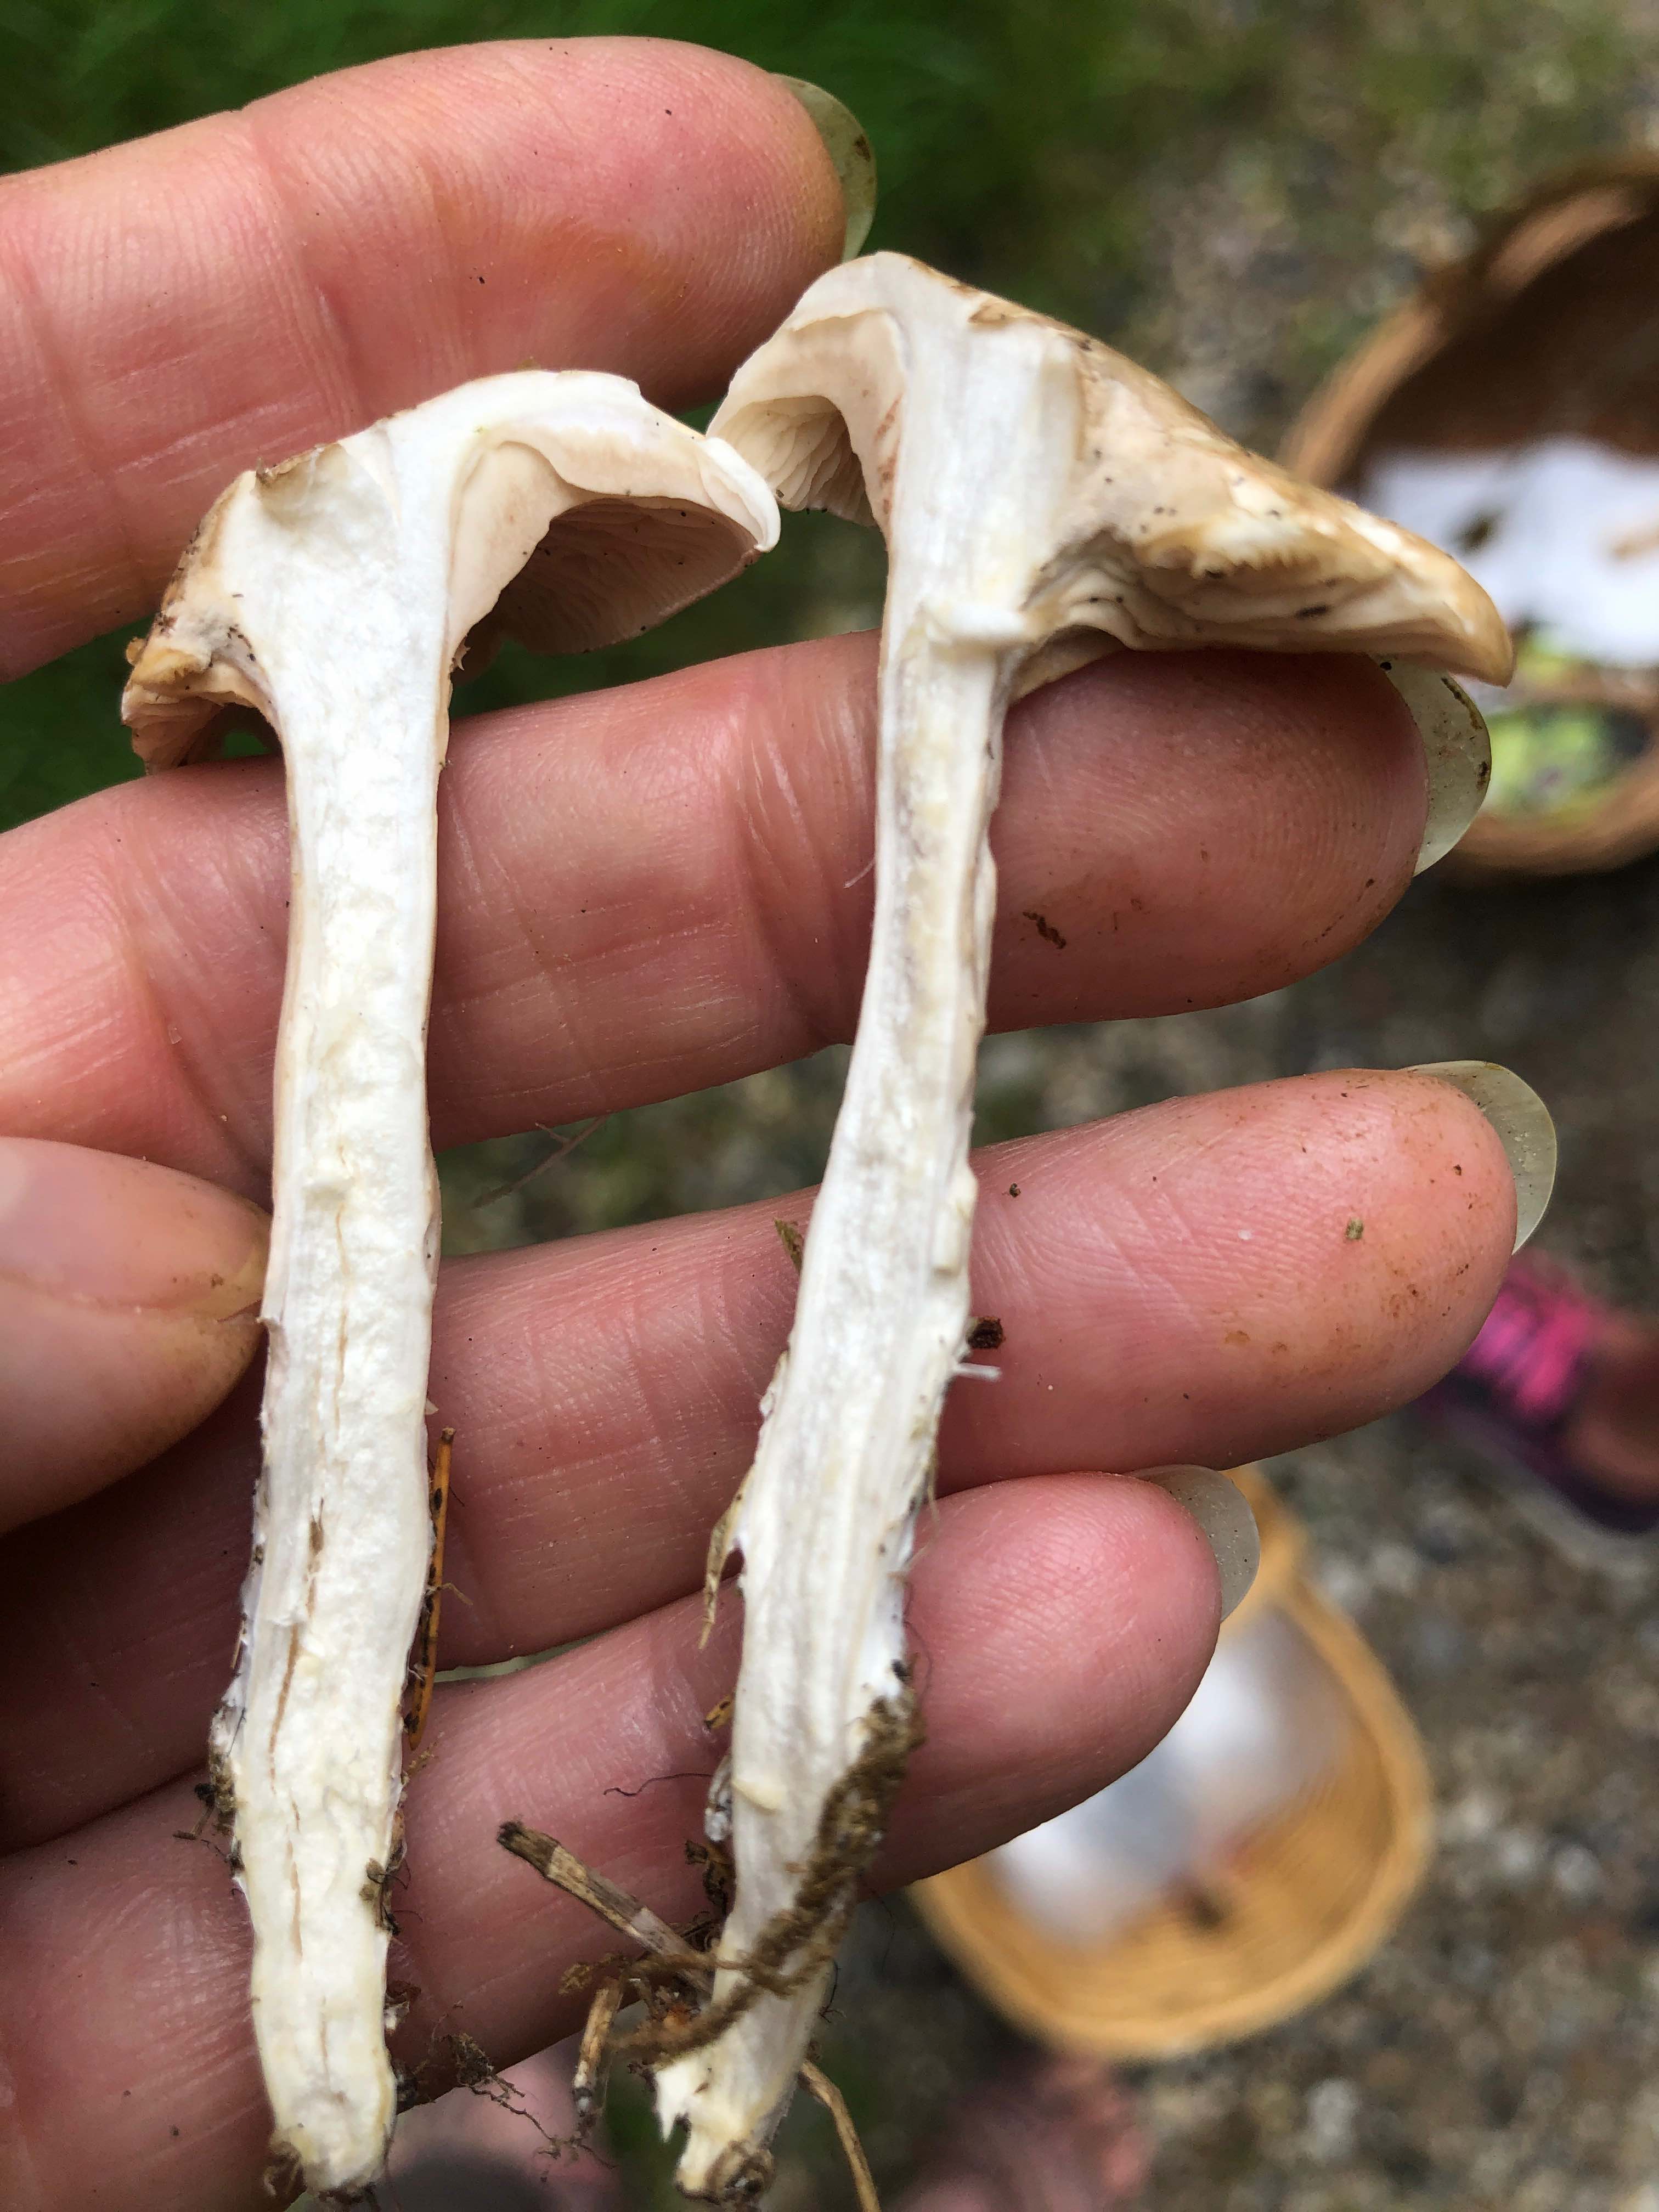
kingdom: Fungi
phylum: Basidiomycota
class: Agaricomycetes
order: Agaricales
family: Entolomataceae
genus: Clitopilus
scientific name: Clitopilus prunulus
